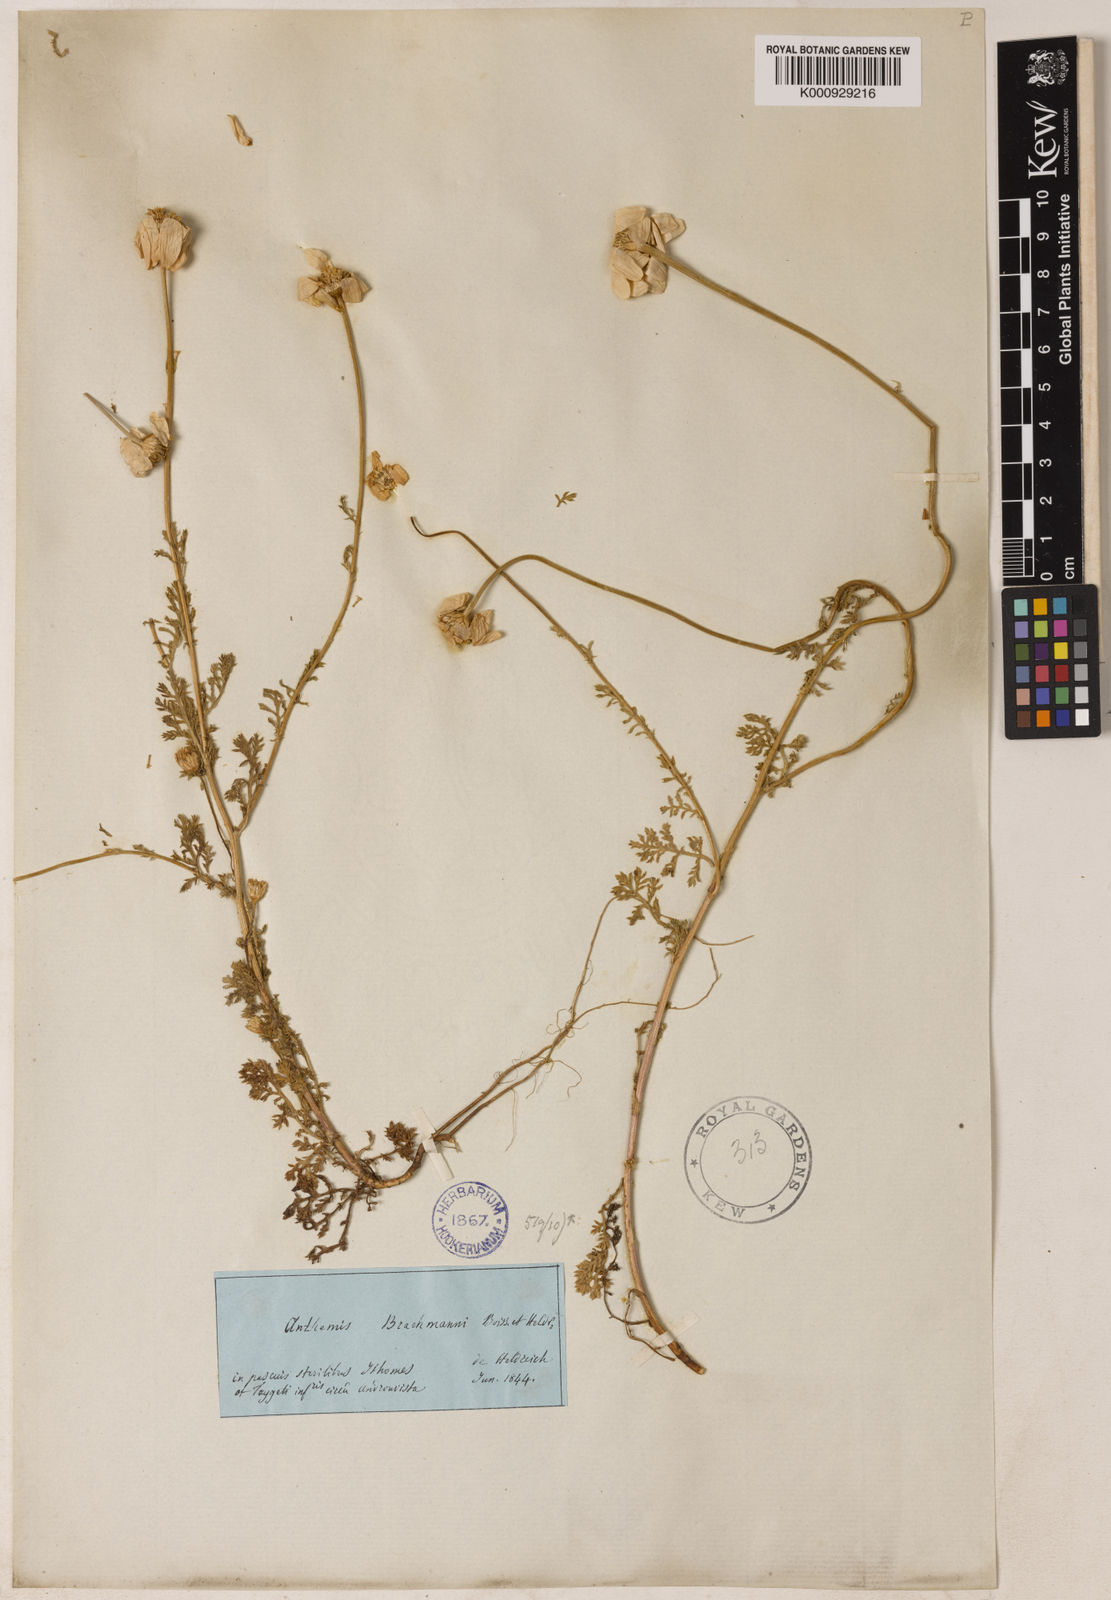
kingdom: Plantae
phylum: Tracheophyta
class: Magnoliopsida
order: Asterales
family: Asteraceae
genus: Cota
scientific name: Cota brachmanni
